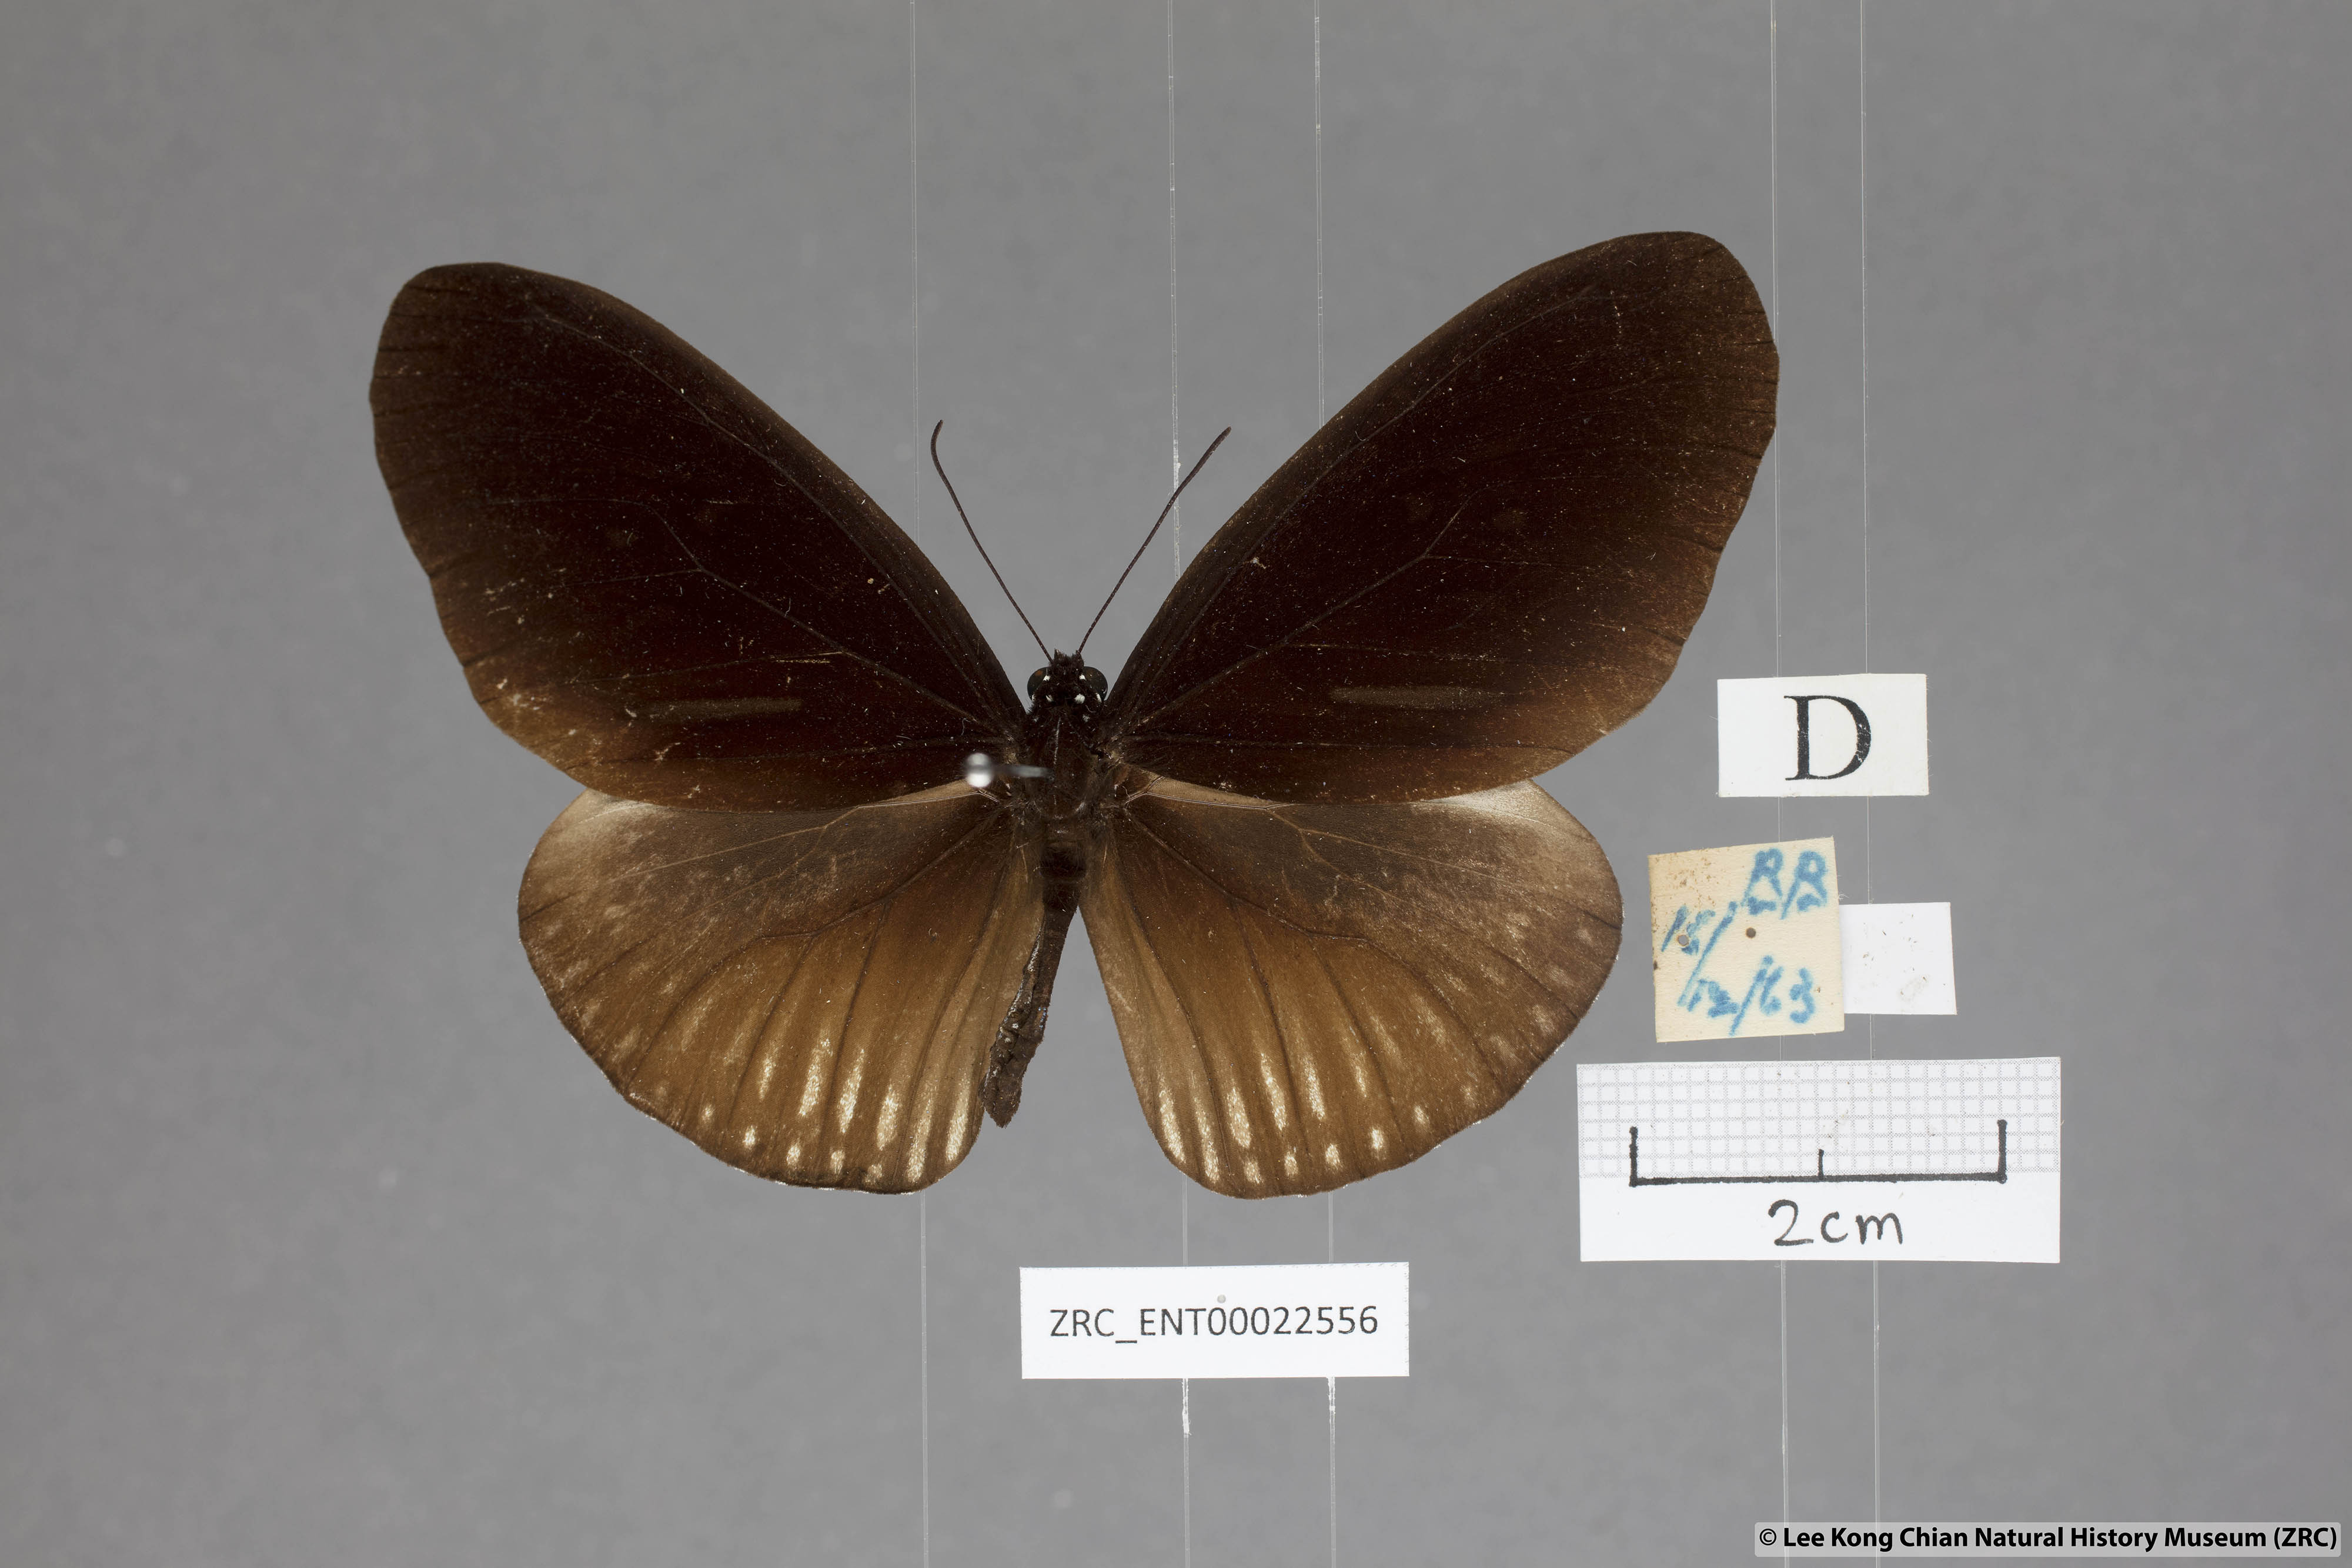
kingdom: Animalia
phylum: Arthropoda
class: Insecta
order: Lepidoptera
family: Nymphalidae
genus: Euploea
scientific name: Euploea eyndhovii
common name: Striped black crow butterfly
